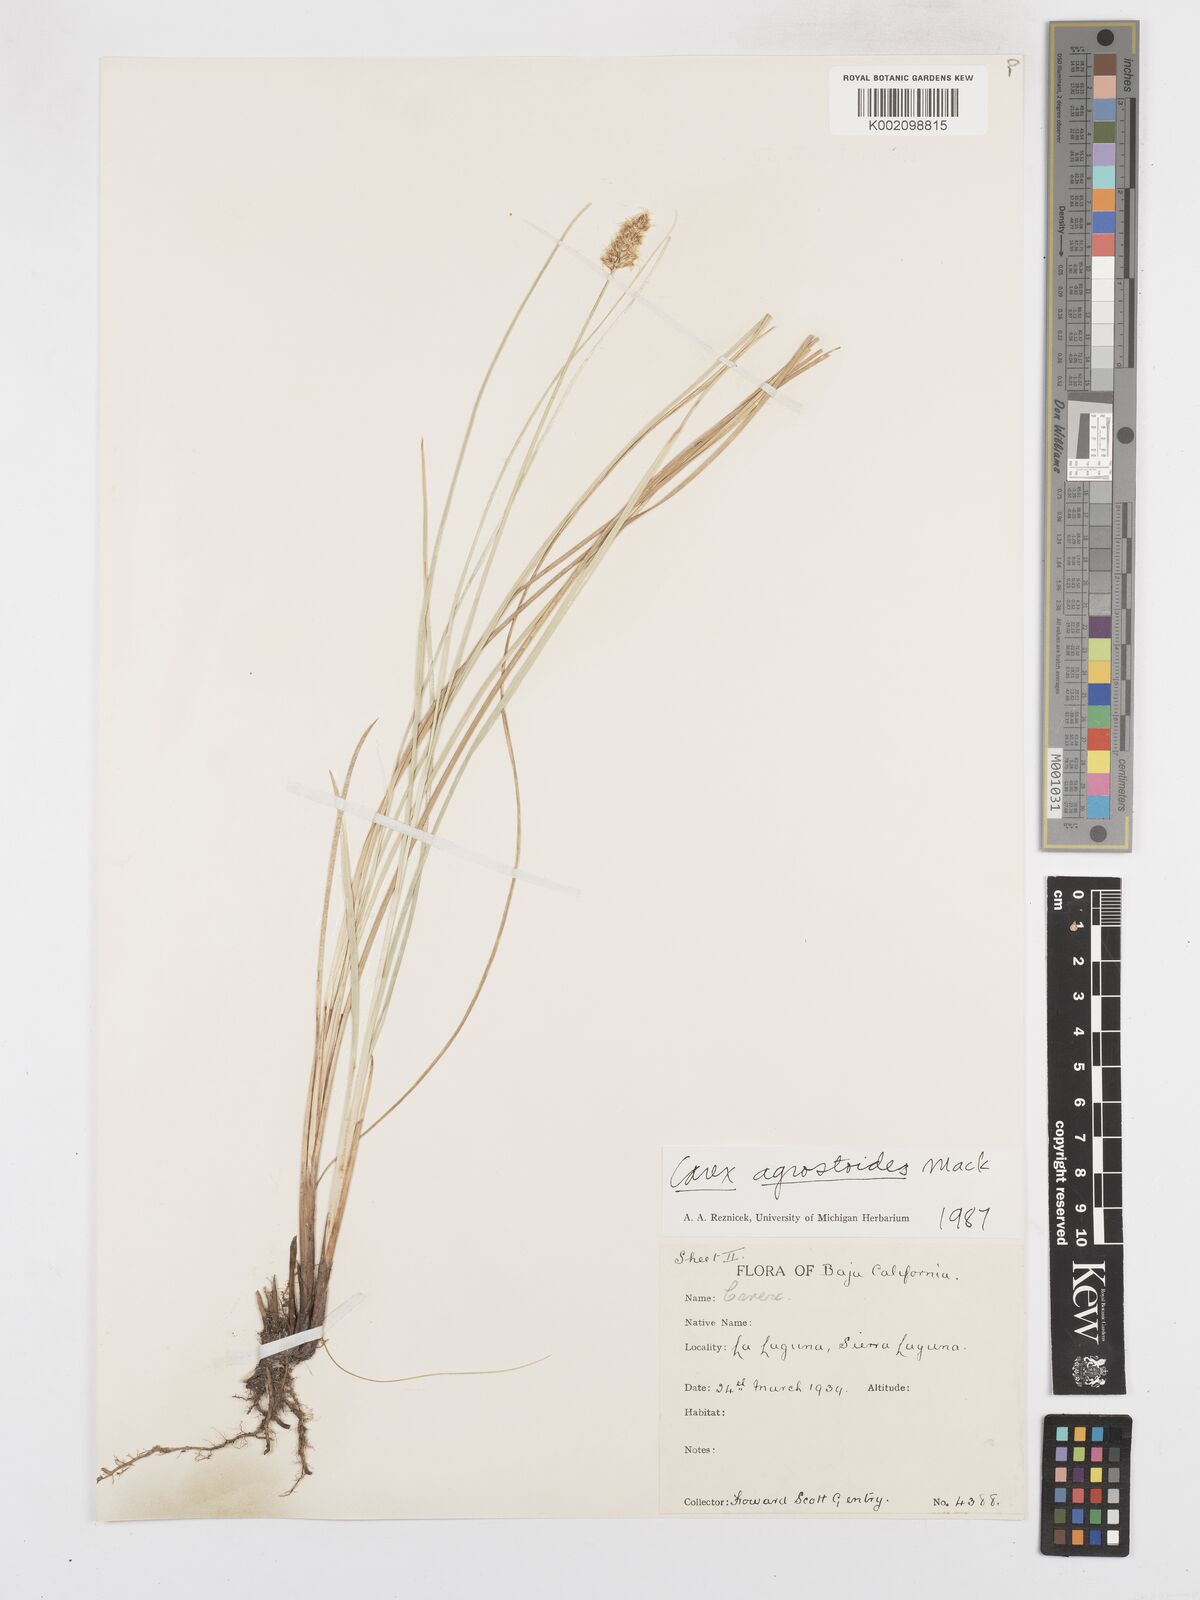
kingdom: Plantae
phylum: Tracheophyta
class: Liliopsida
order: Poales
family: Cyperaceae
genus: Carex
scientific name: Carex alma
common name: Alma sedge
